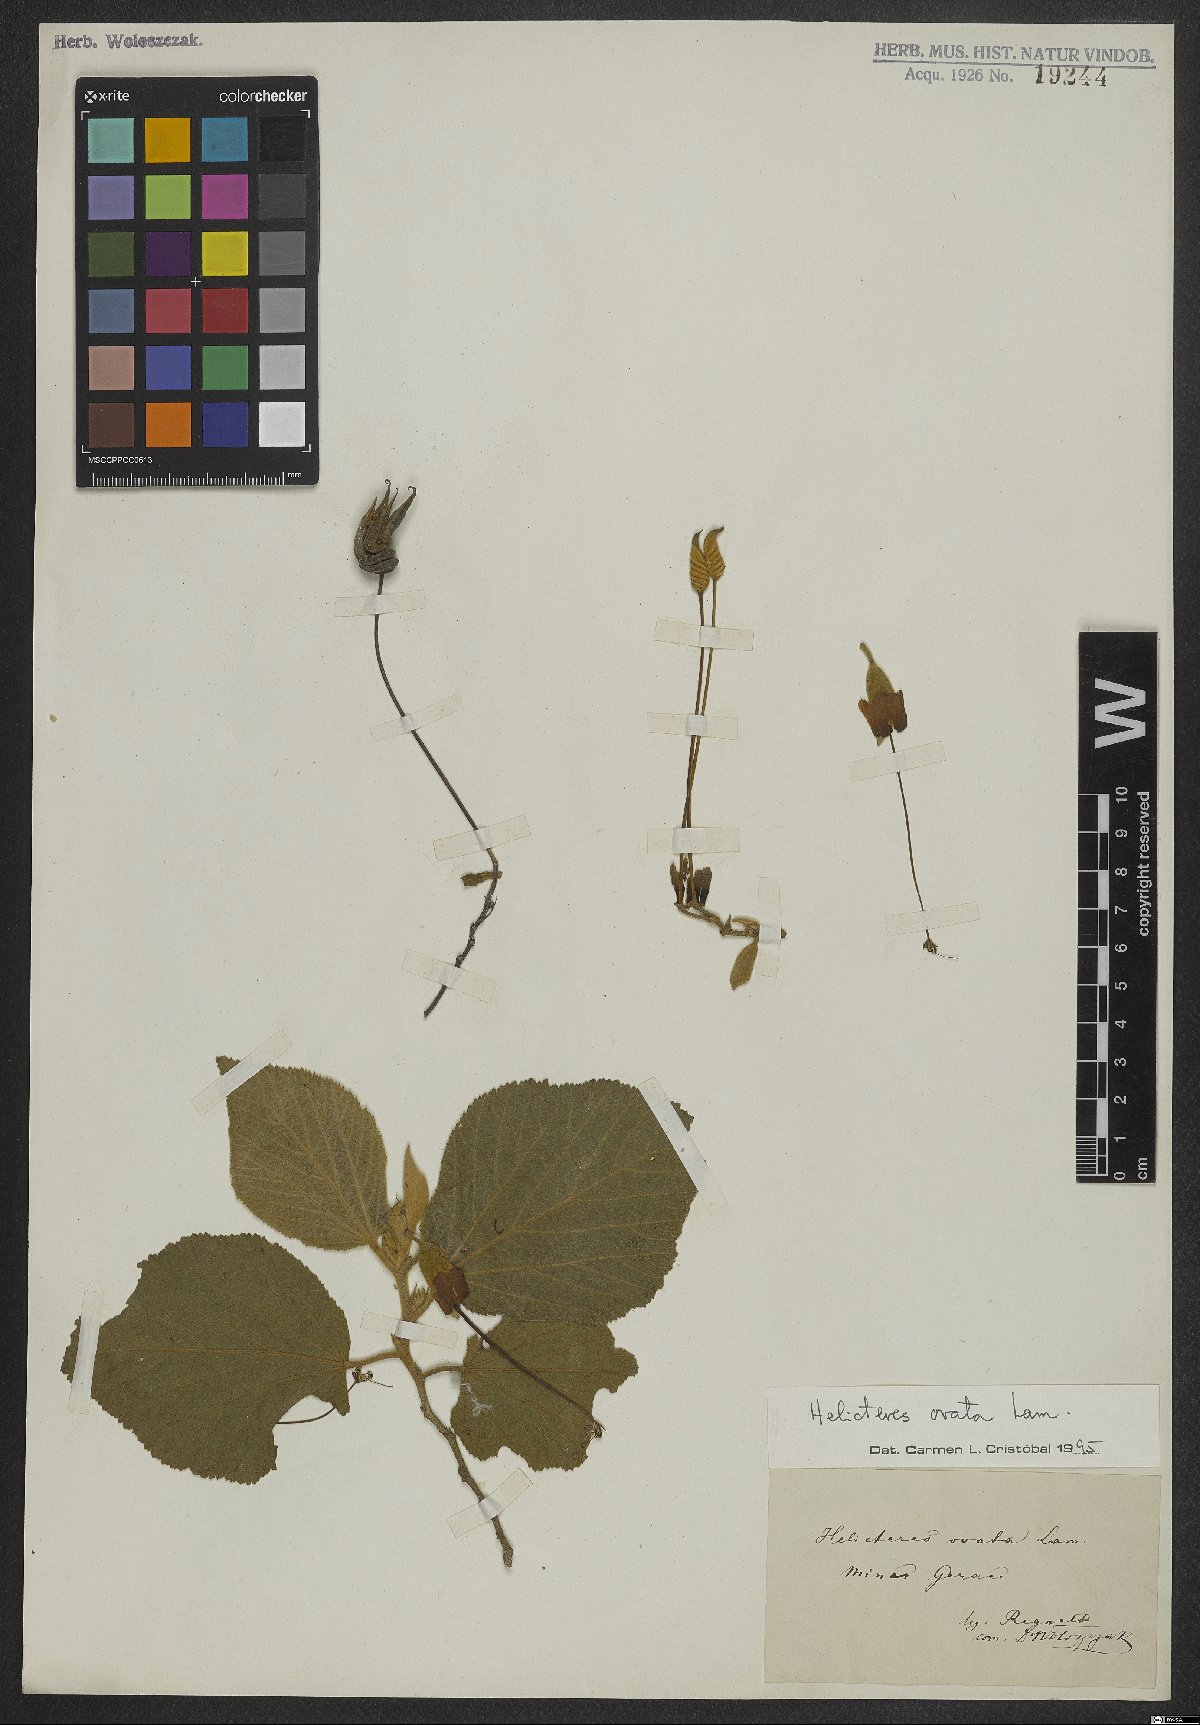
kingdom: Plantae
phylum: Tracheophyta
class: Magnoliopsida
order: Malvales
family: Malvaceae
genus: Helicteres
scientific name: Helicteres ovata
